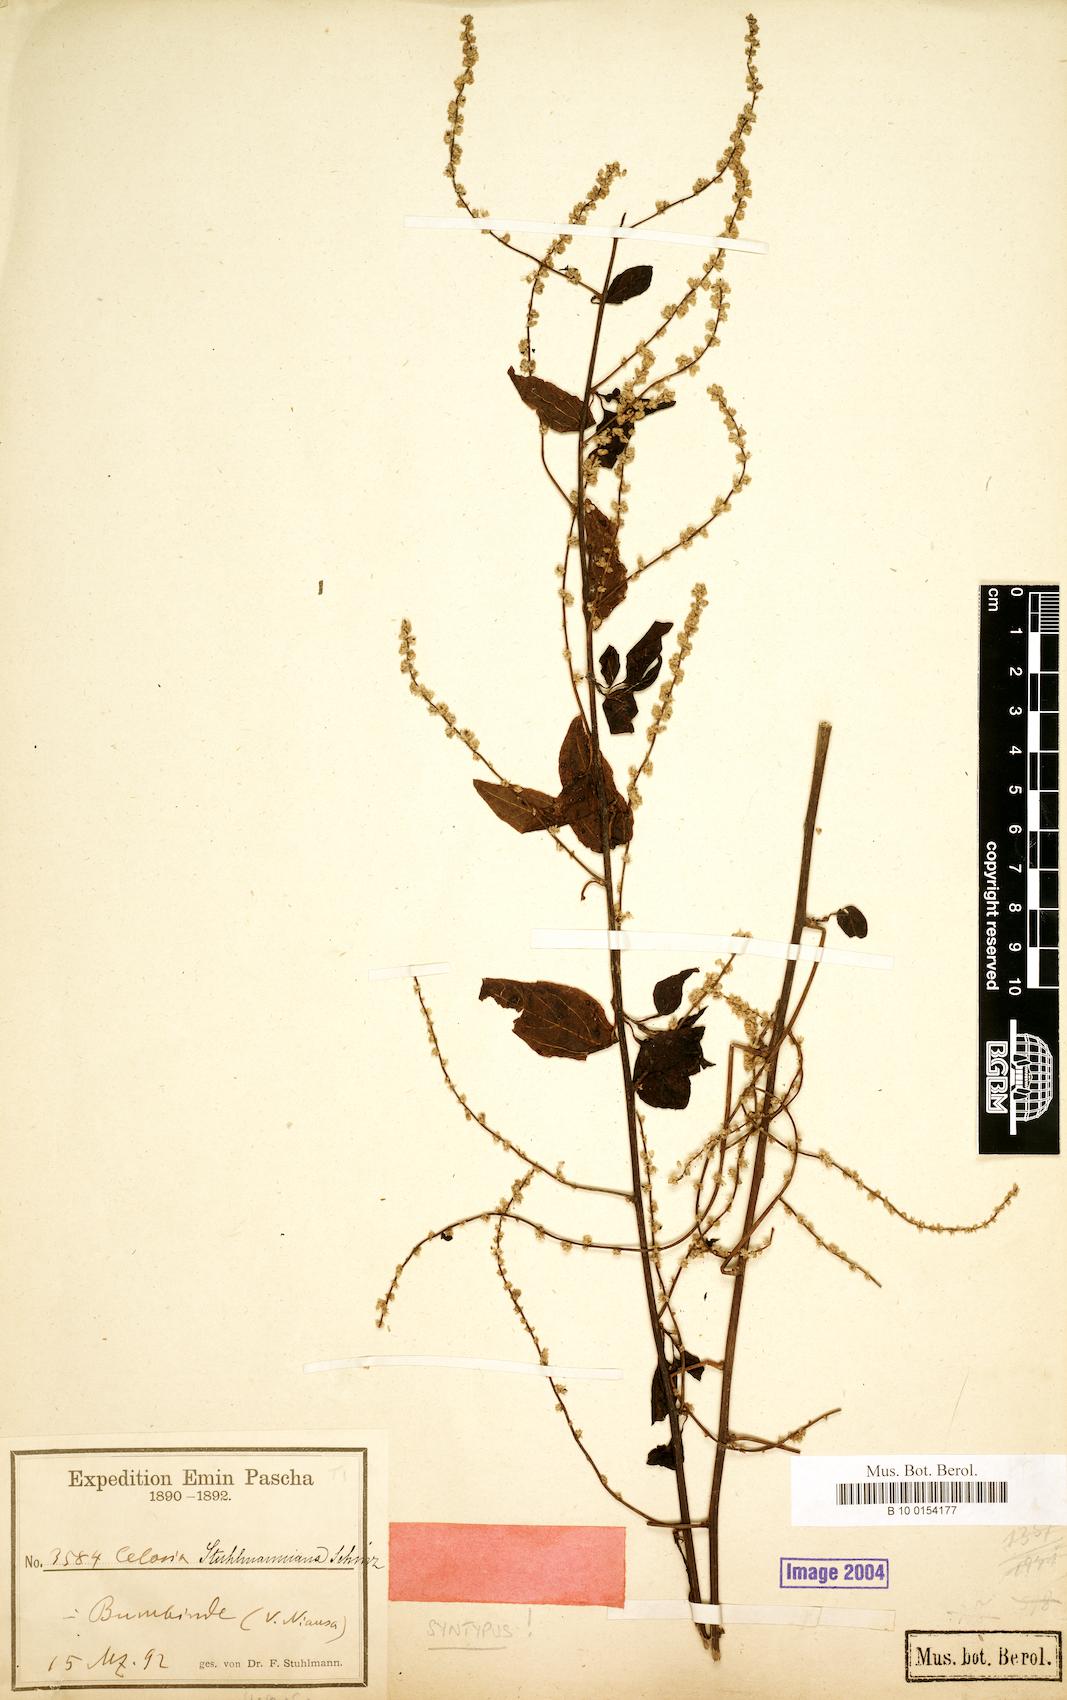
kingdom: Plantae
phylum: Tracheophyta
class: Magnoliopsida
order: Caryophyllales
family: Amaranthaceae
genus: Celosia
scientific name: Celosia stuhlmanniana
